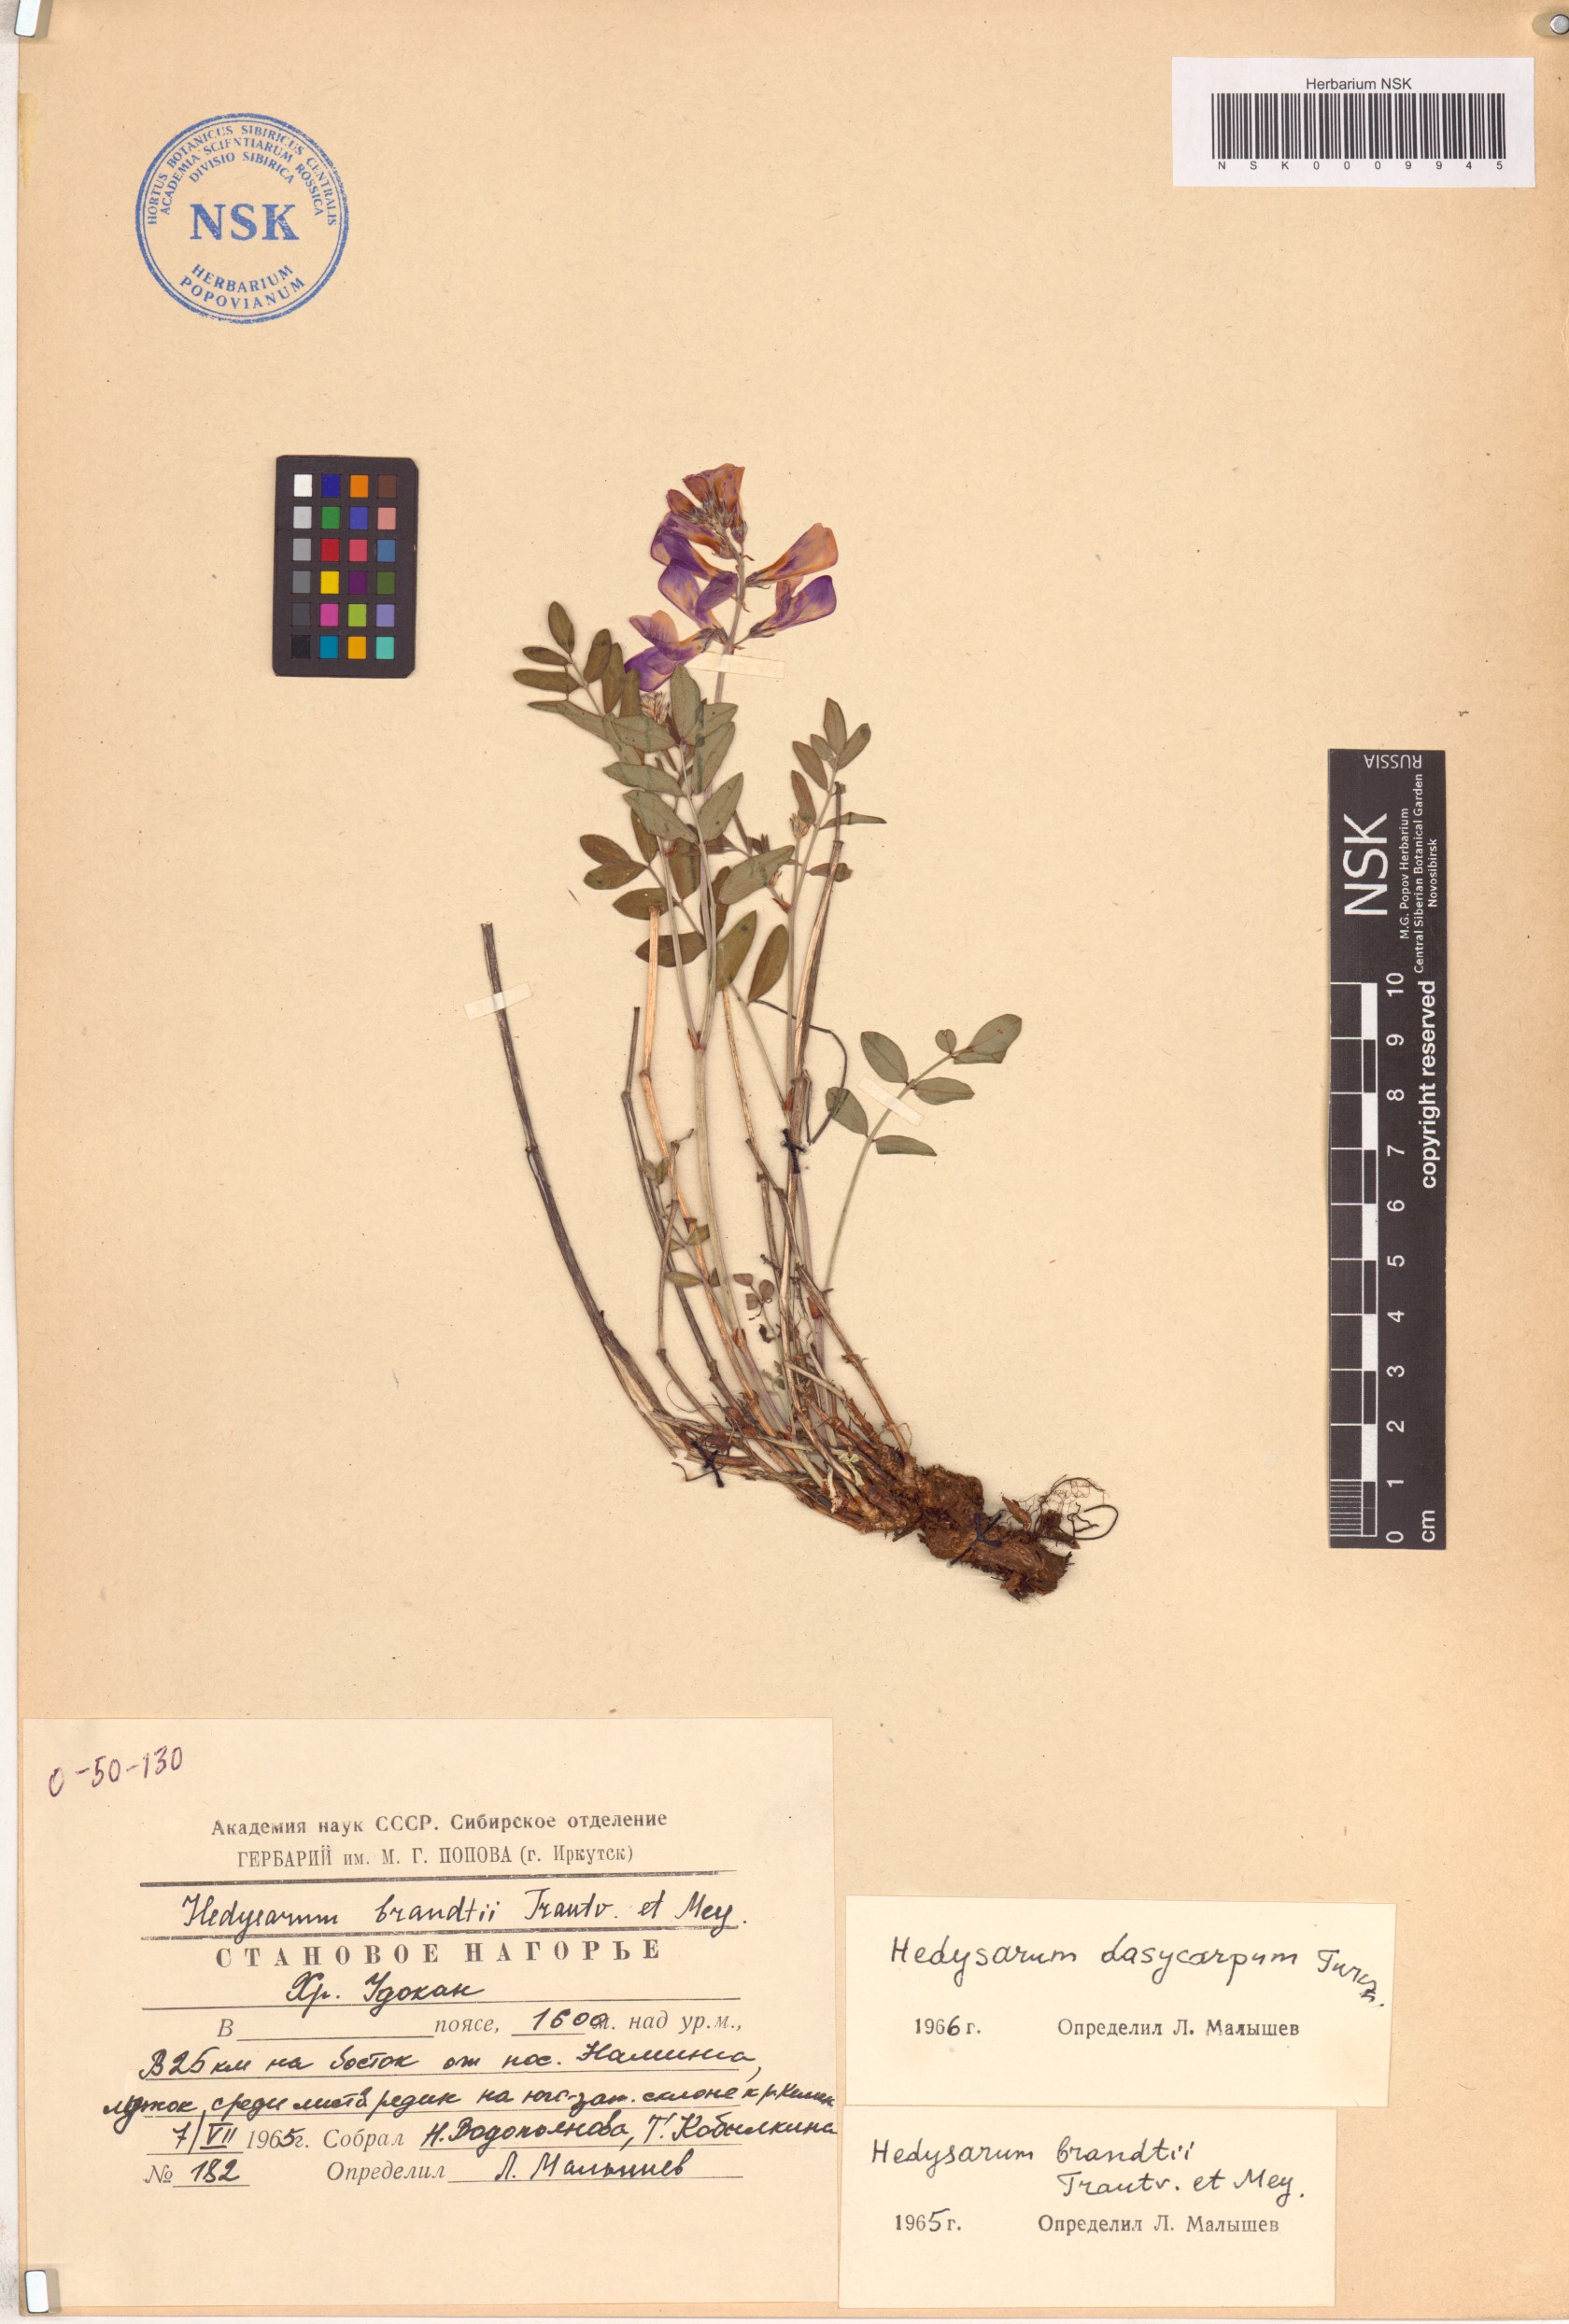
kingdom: Plantae
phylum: Tracheophyta
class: Magnoliopsida
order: Fabales
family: Fabaceae
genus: Hedysarum
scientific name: Hedysarum dasycarpum
